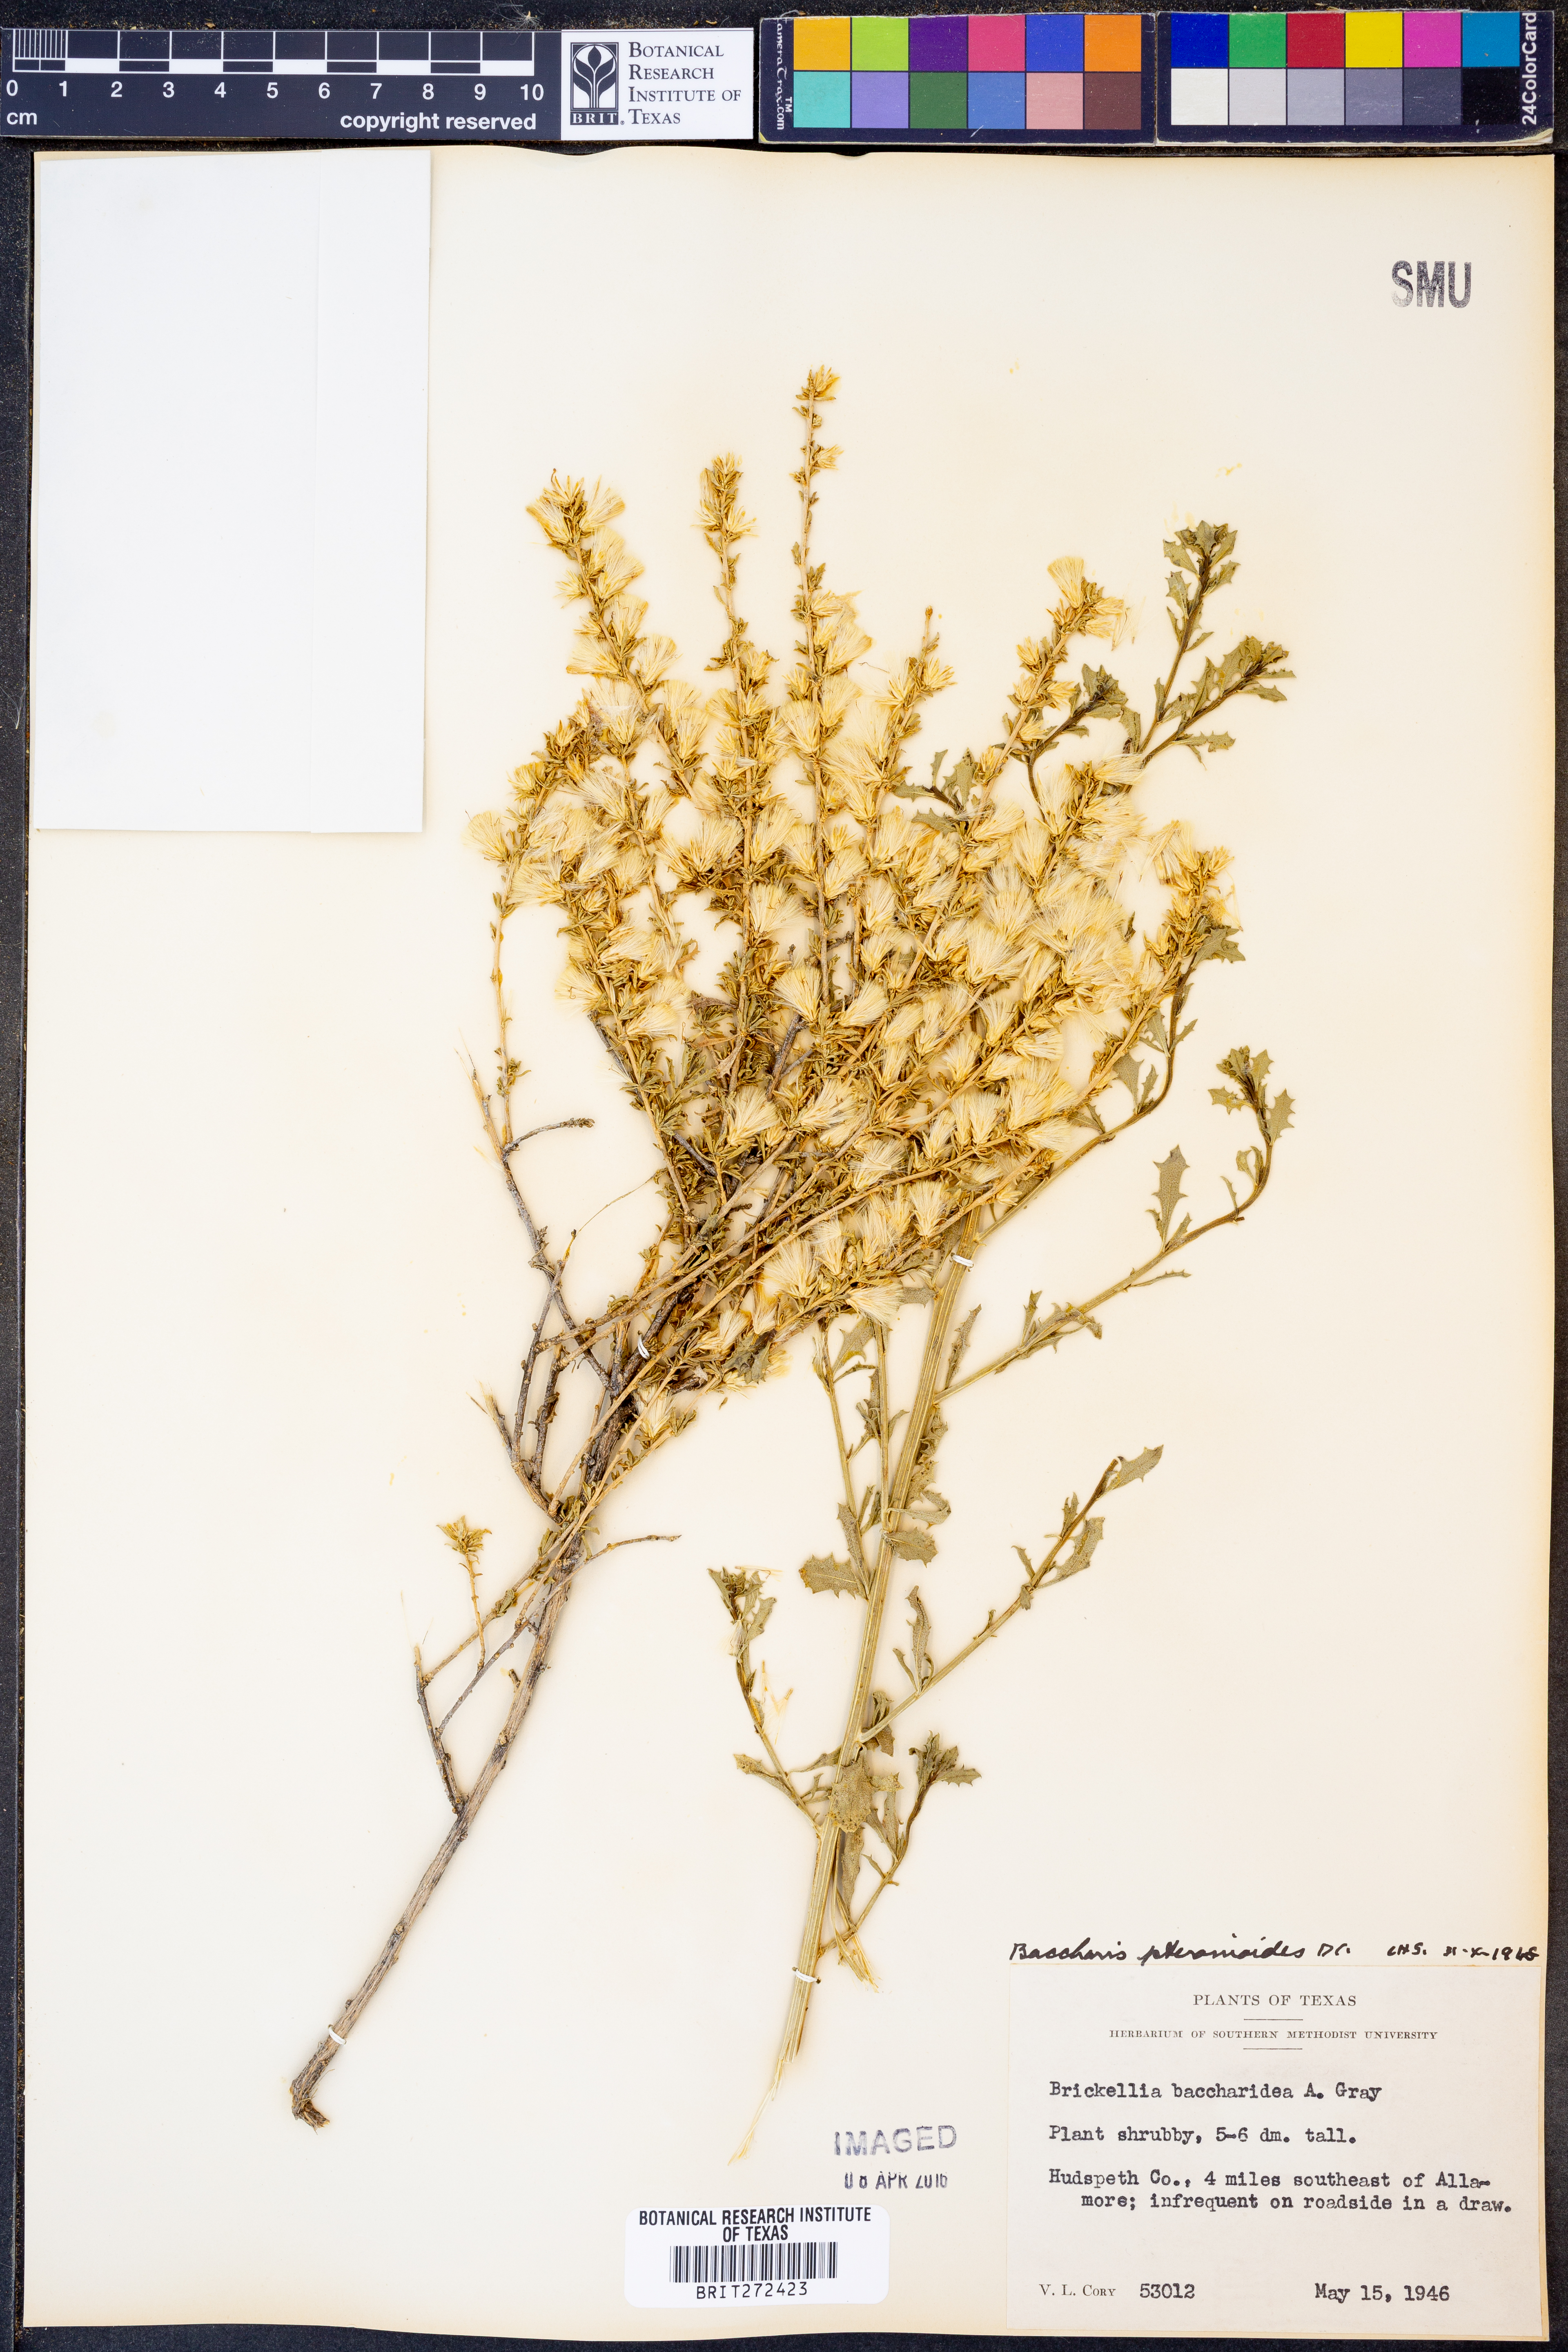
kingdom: Plantae
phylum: Tracheophyta
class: Magnoliopsida
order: Asterales
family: Asteraceae
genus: Baccharis
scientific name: Baccharis pteronioides
